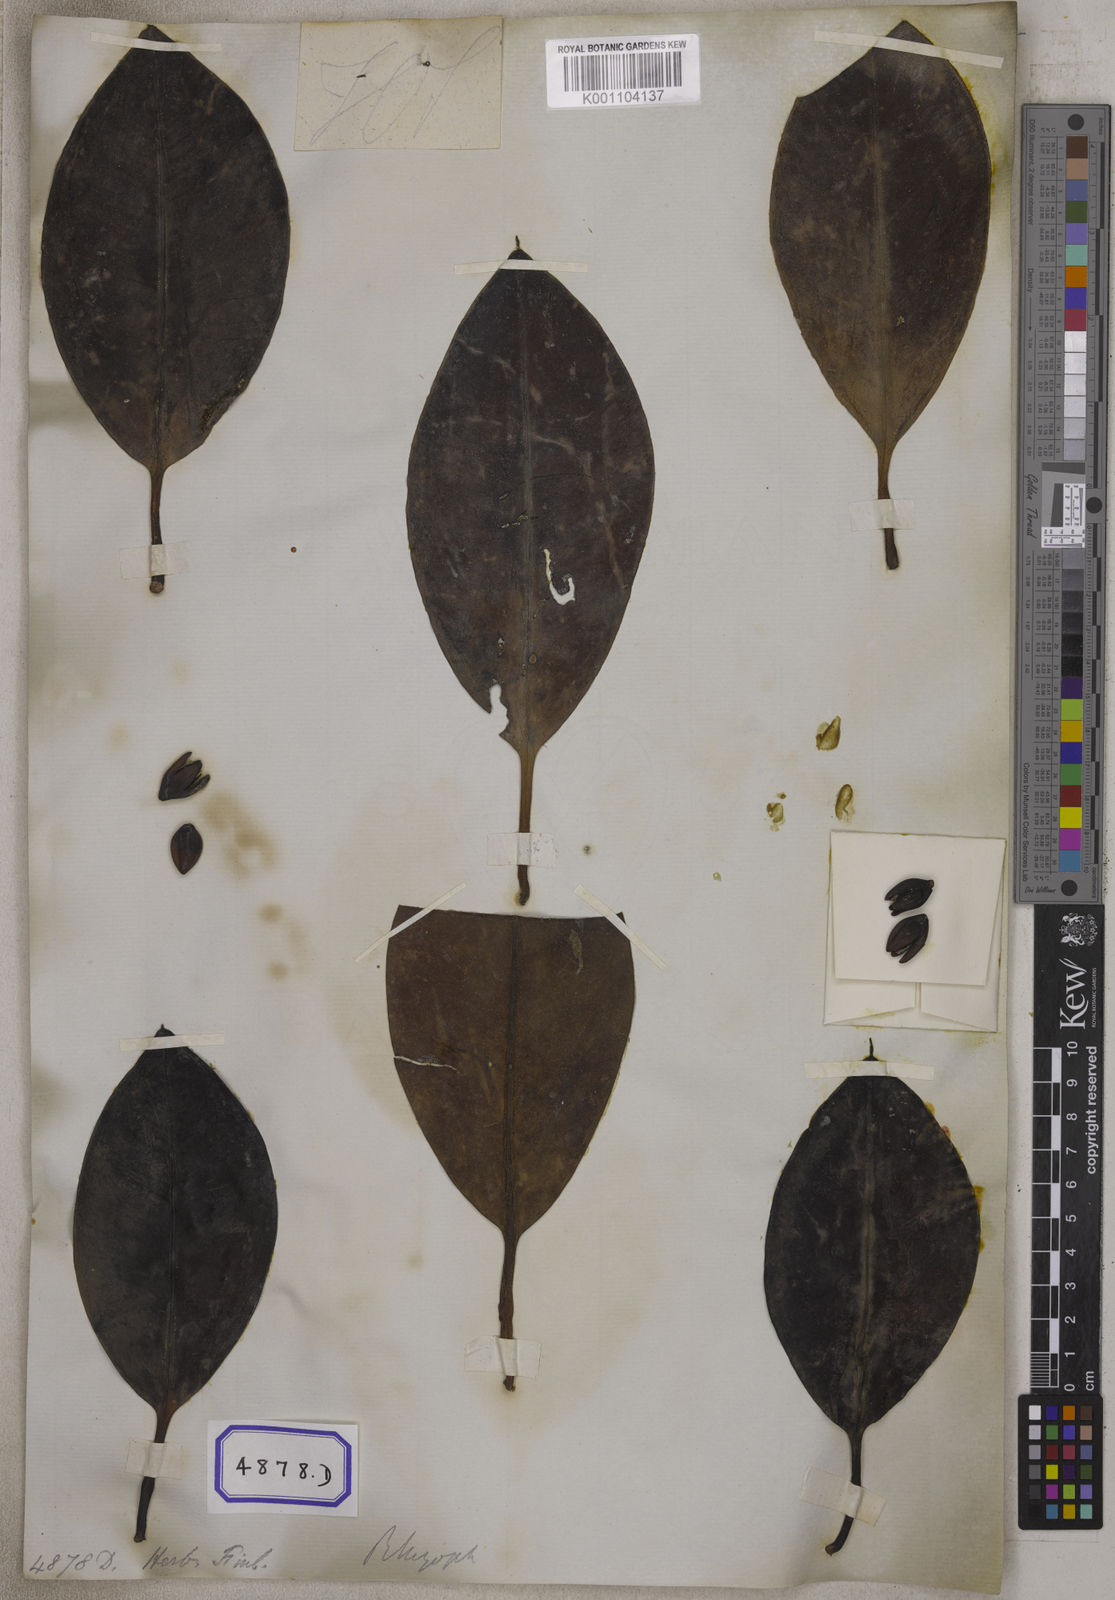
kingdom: Plantae
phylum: Tracheophyta
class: Magnoliopsida
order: Malpighiales
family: Rhizophoraceae
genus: Rhizophora
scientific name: Rhizophora
